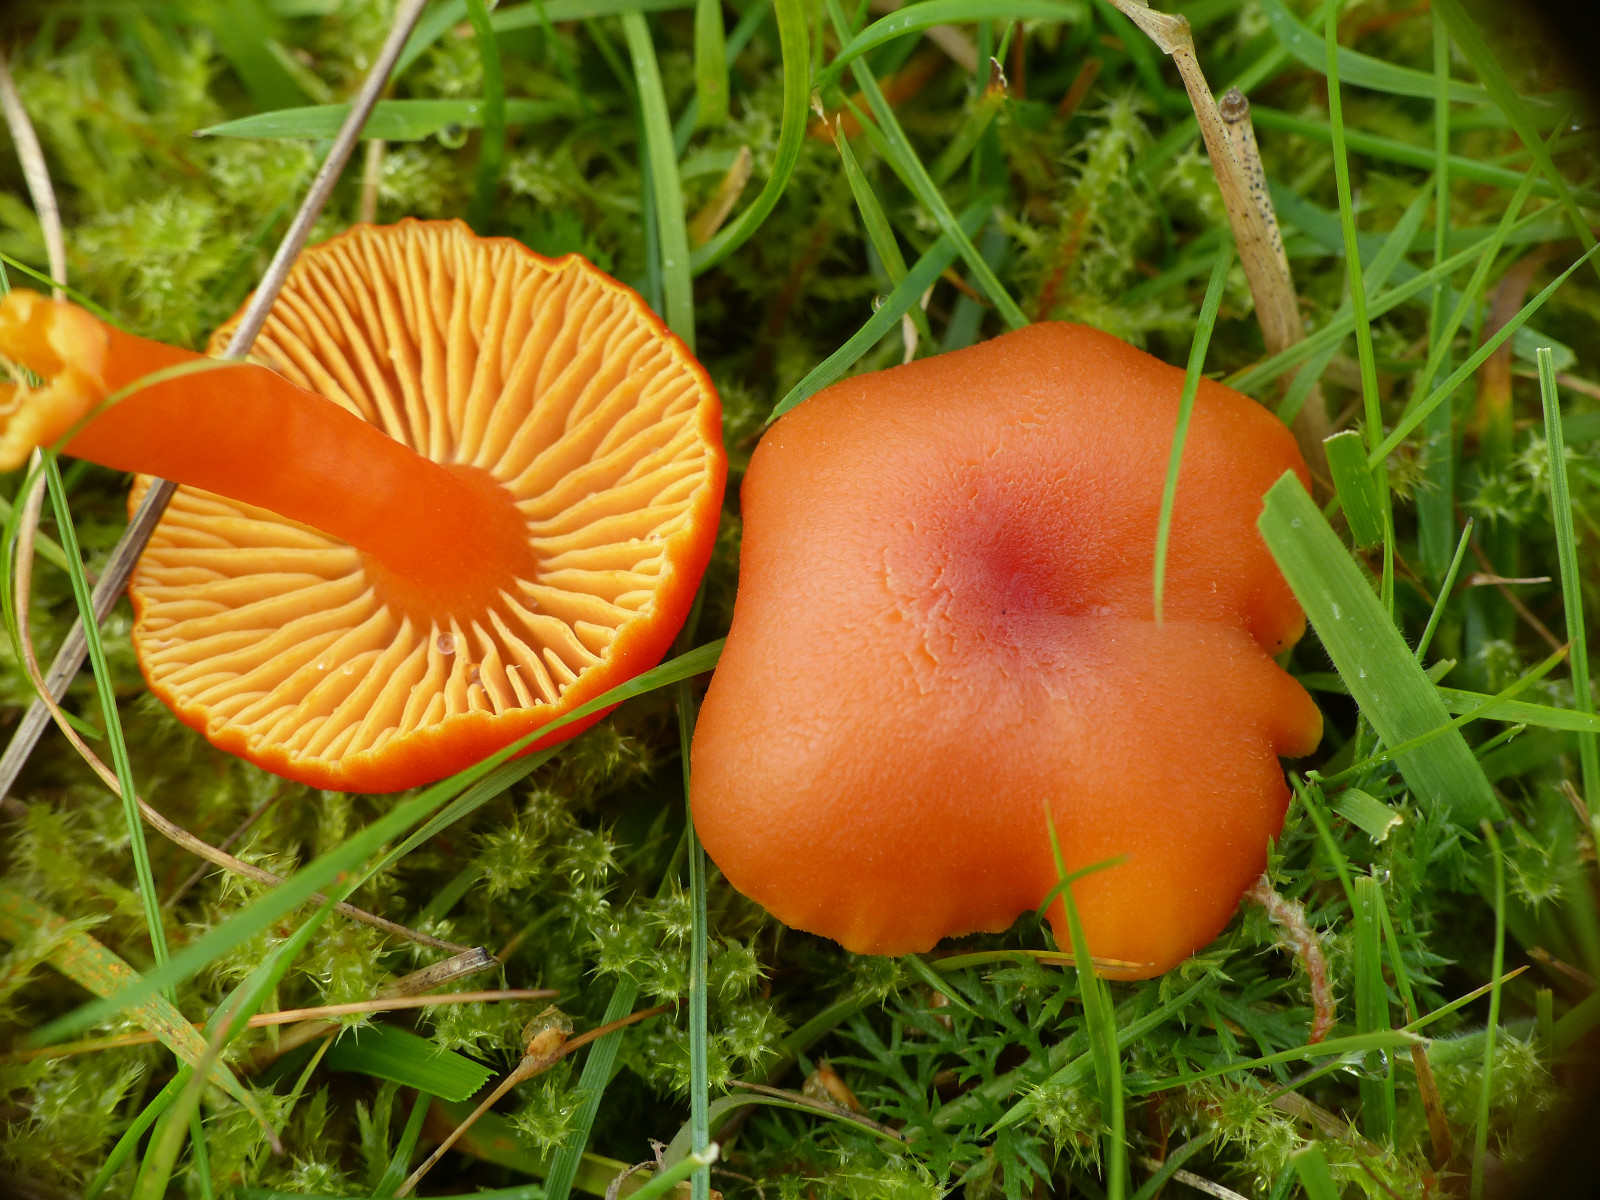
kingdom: Fungi
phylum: Basidiomycota
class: Agaricomycetes
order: Agaricales
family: Hygrophoraceae
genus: Hygrocybe
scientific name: Hygrocybe miniata
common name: mønje-vokshat
